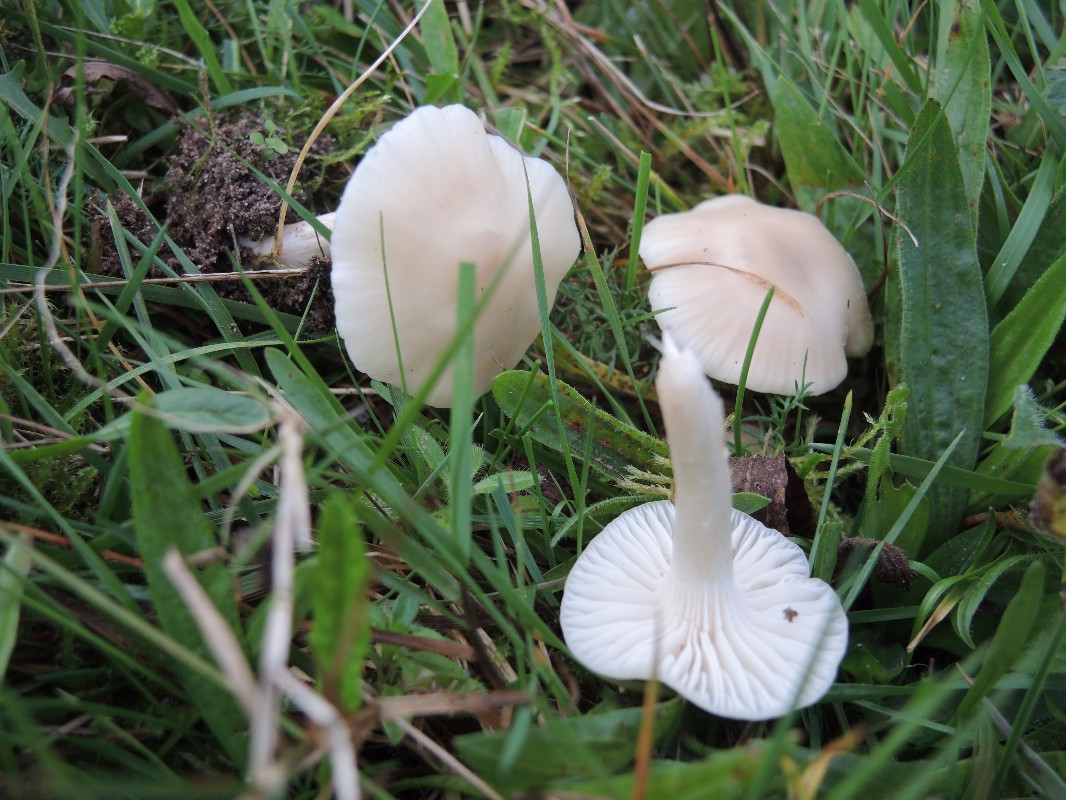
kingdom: Fungi
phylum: Basidiomycota
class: Agaricomycetes
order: Agaricales
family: Hygrophoraceae
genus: Cuphophyllus
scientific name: Cuphophyllus virgineus
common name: snehvid vokshat
